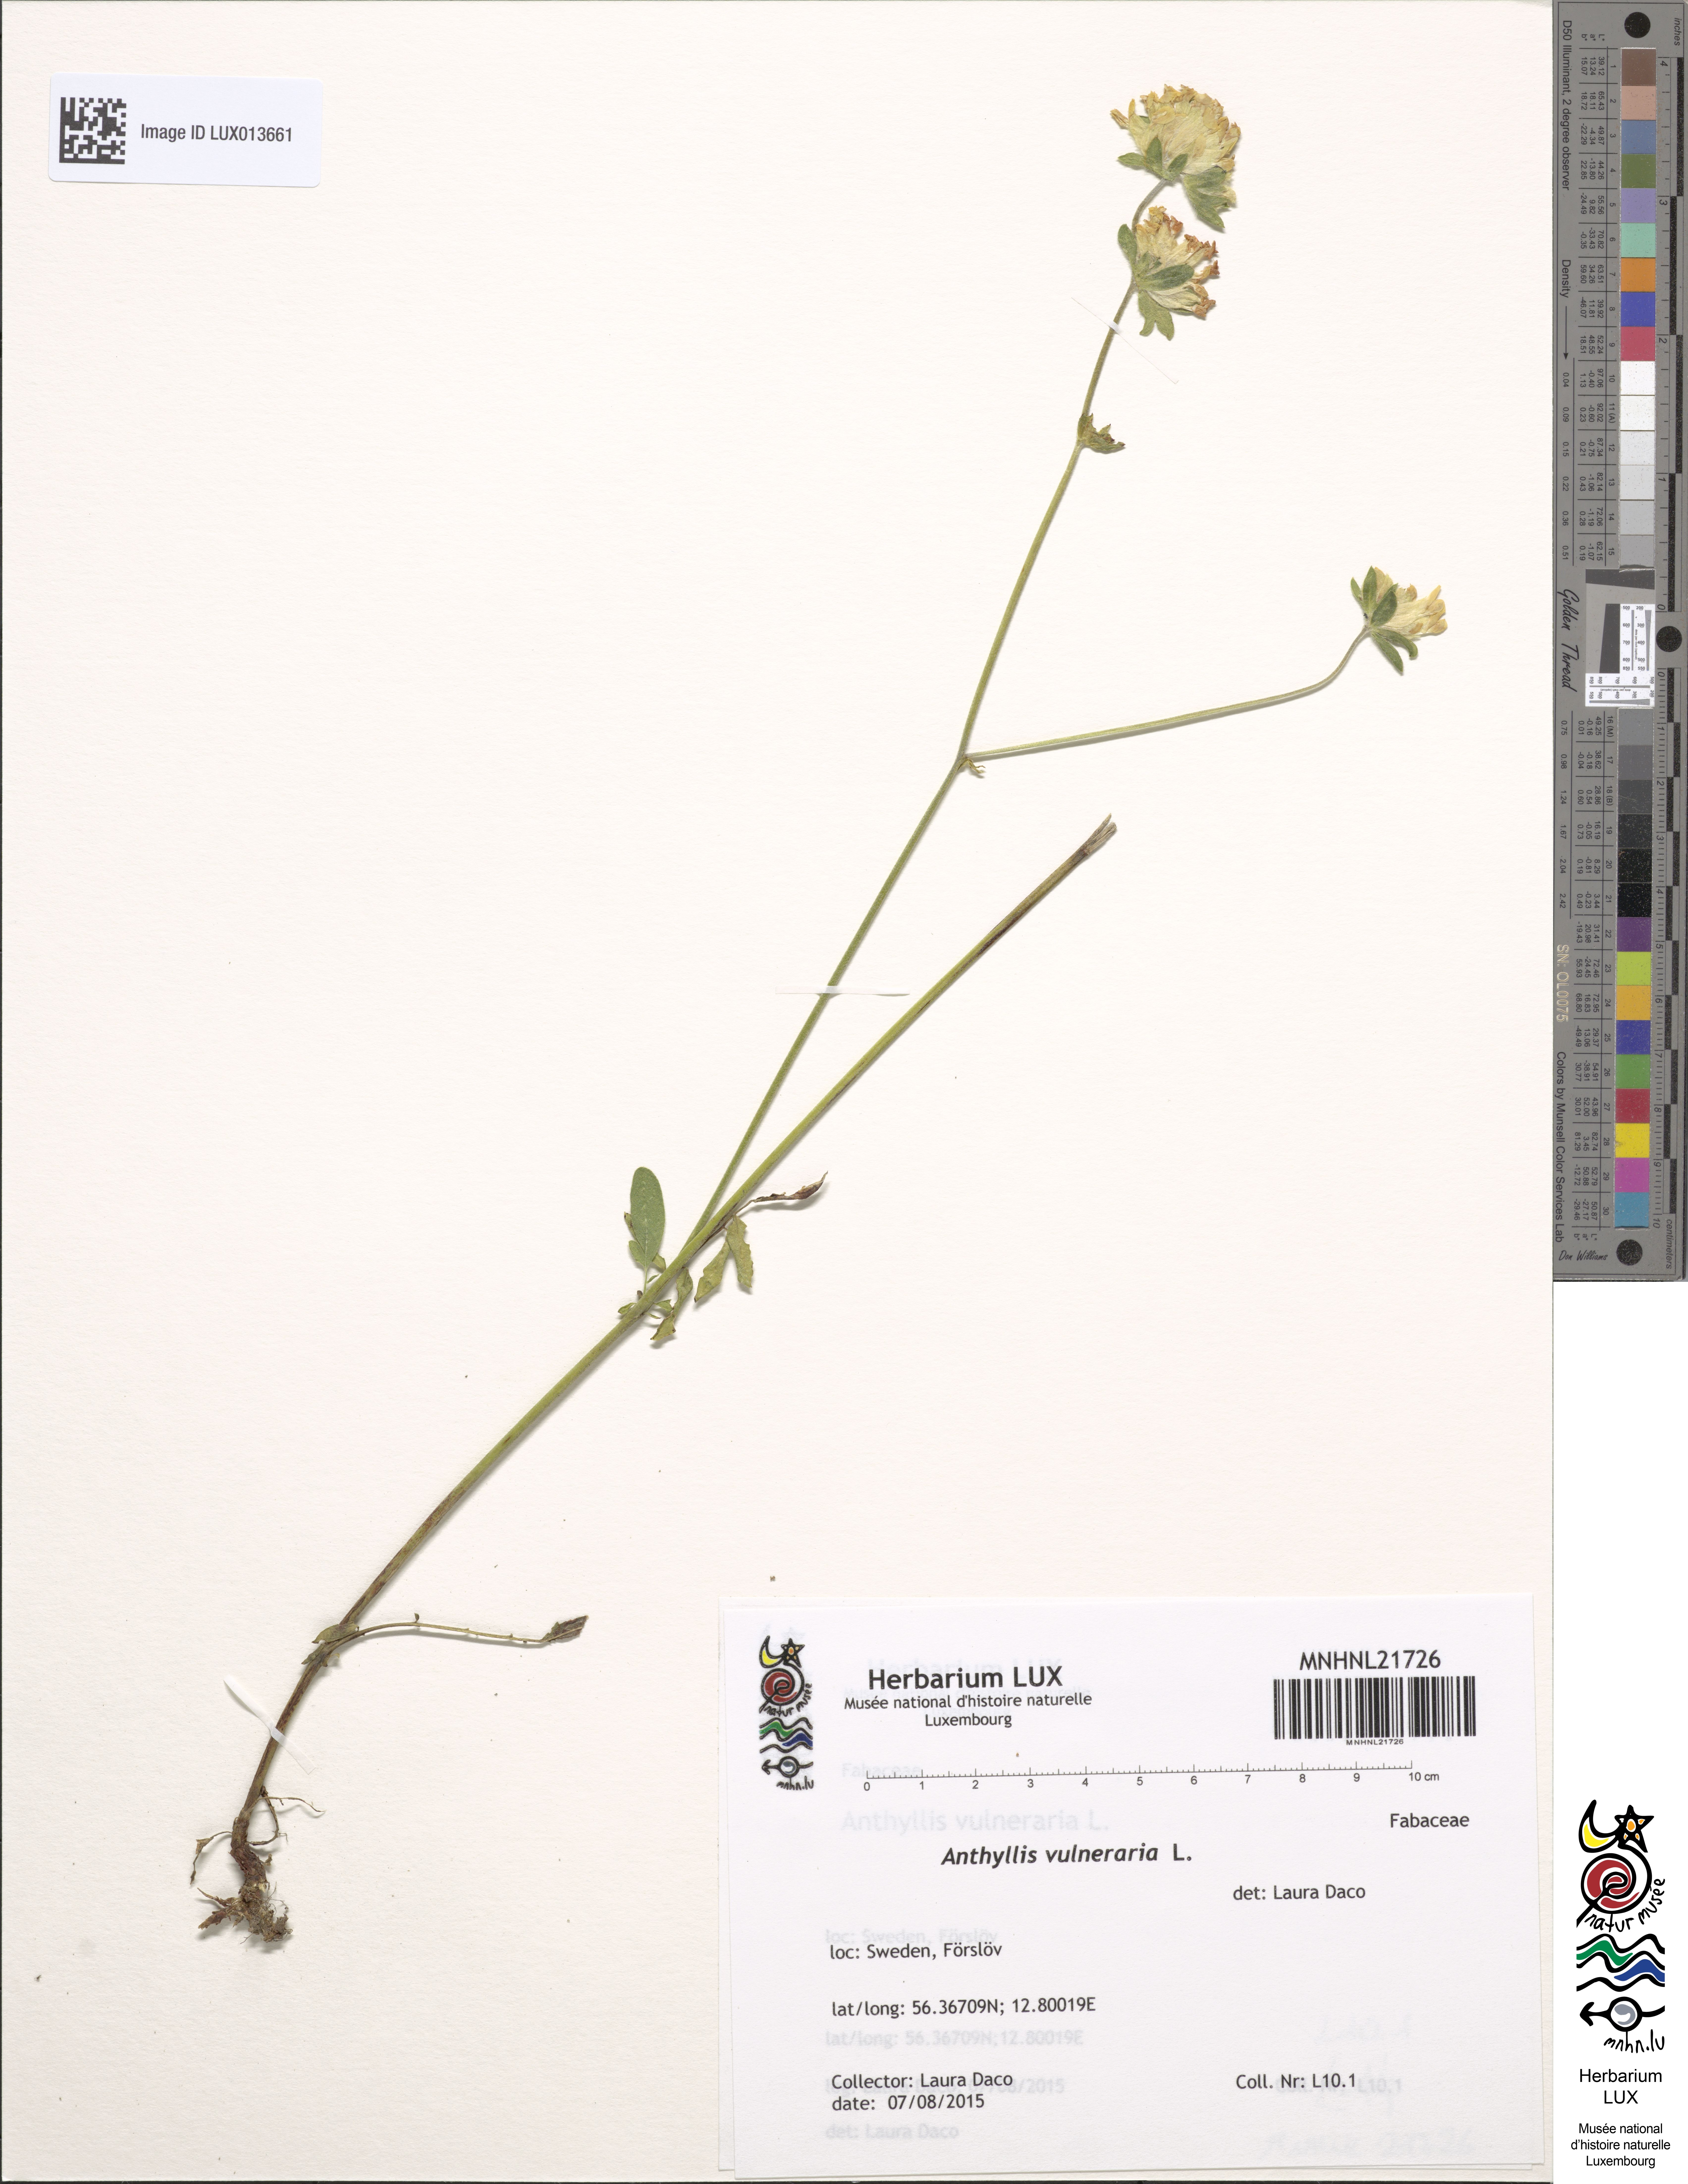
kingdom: Plantae
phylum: Tracheophyta
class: Magnoliopsida
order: Fabales
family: Fabaceae
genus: Anthyllis
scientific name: Anthyllis vulneraria
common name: Kidney vetch
